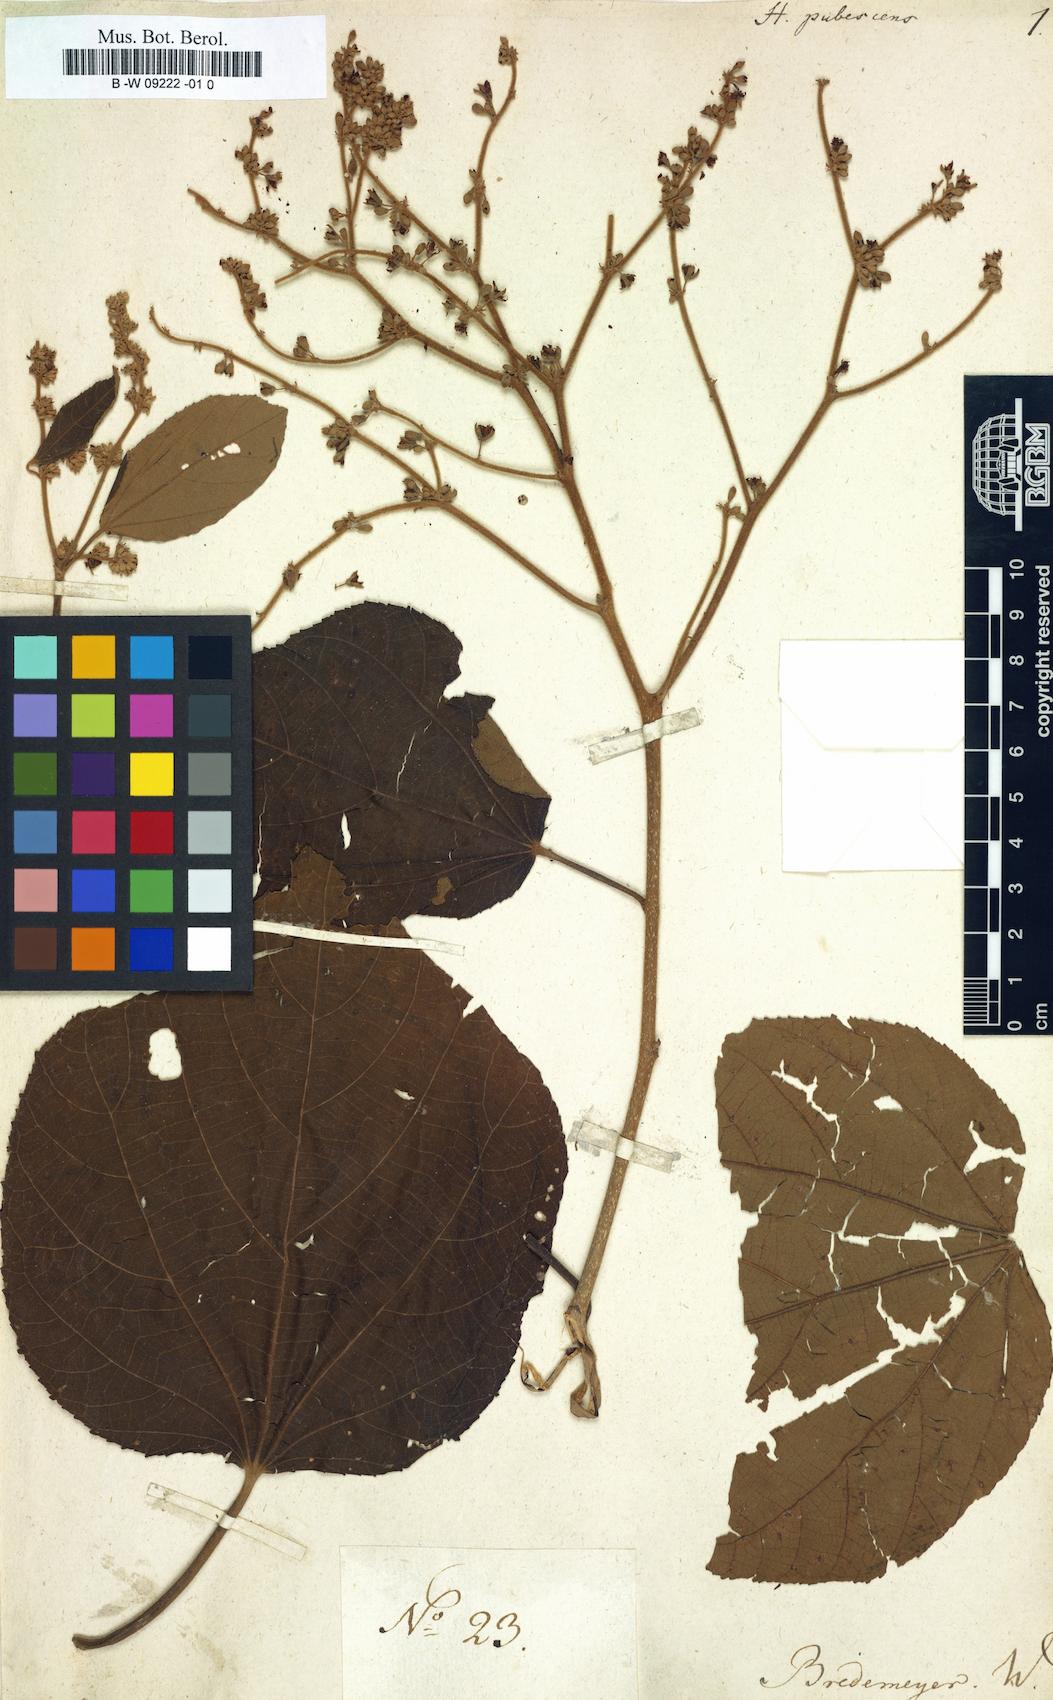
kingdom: Plantae
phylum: Tracheophyta
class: Magnoliopsida
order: Malvales
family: Malvaceae
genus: Heliocarpus
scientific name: Heliocarpus
